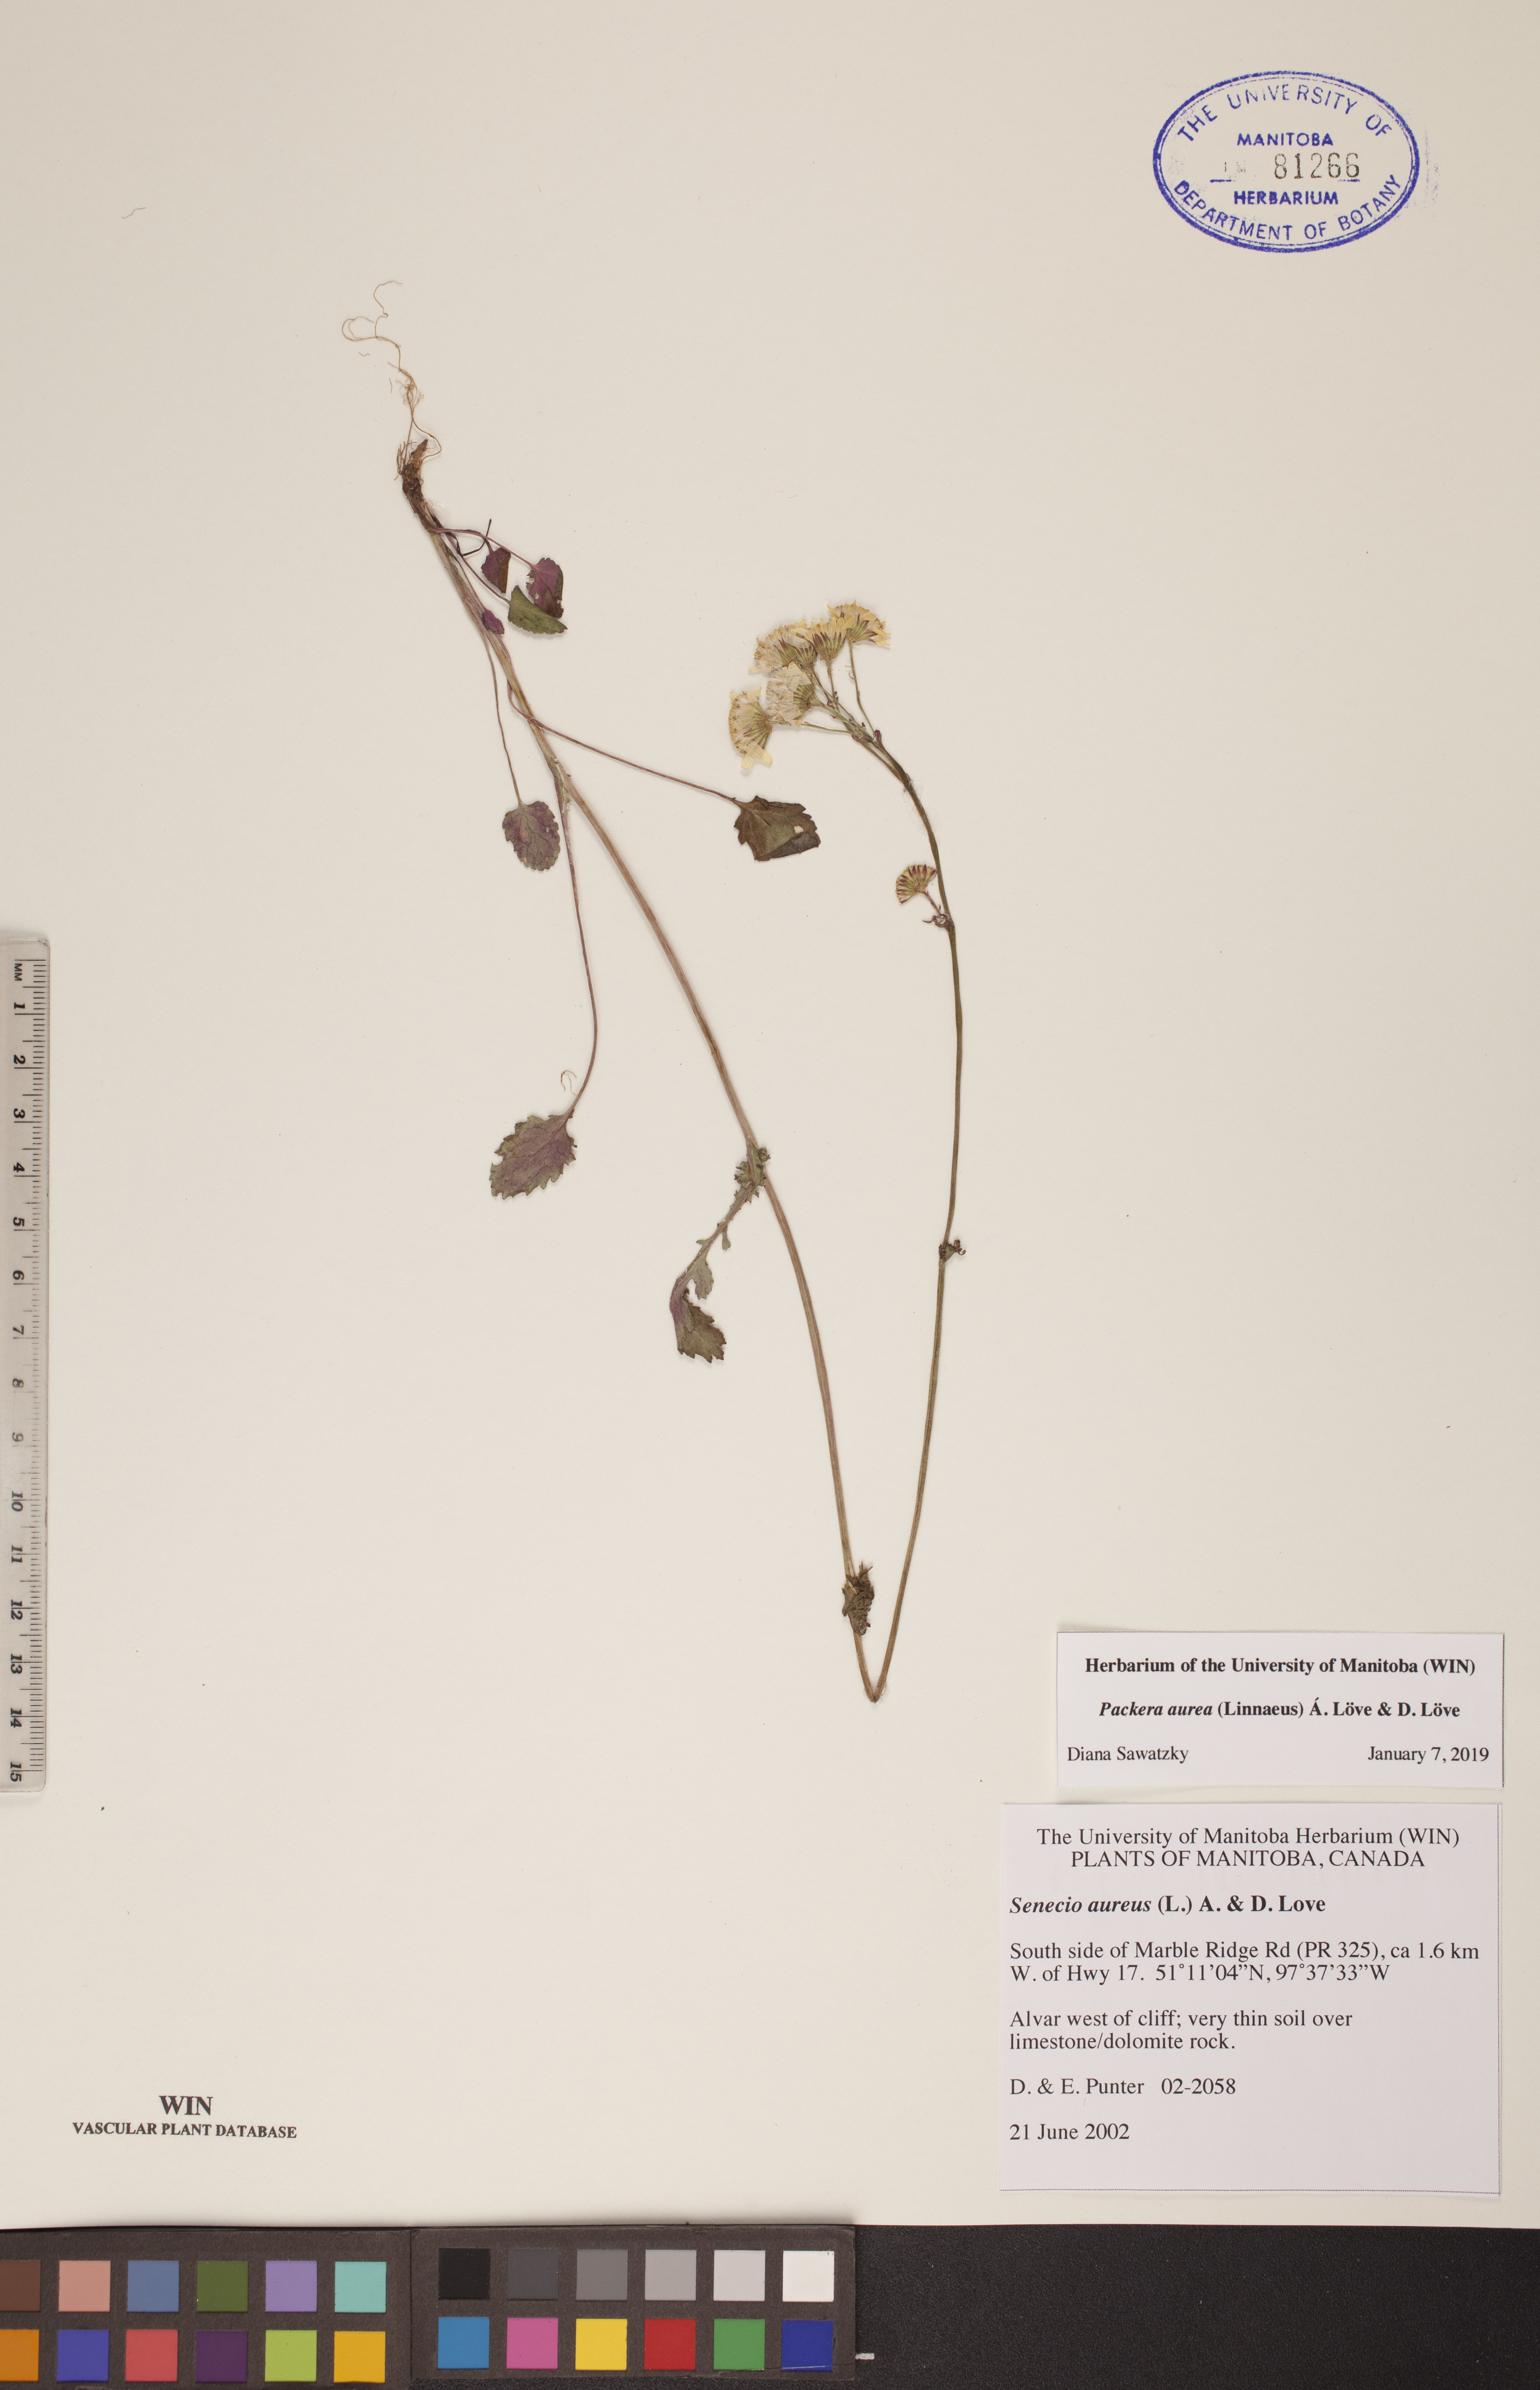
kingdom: Plantae
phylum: Tracheophyta
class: Magnoliopsida
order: Asterales
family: Asteraceae
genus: Packera
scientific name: Packera aurea
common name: Golden groundsel
